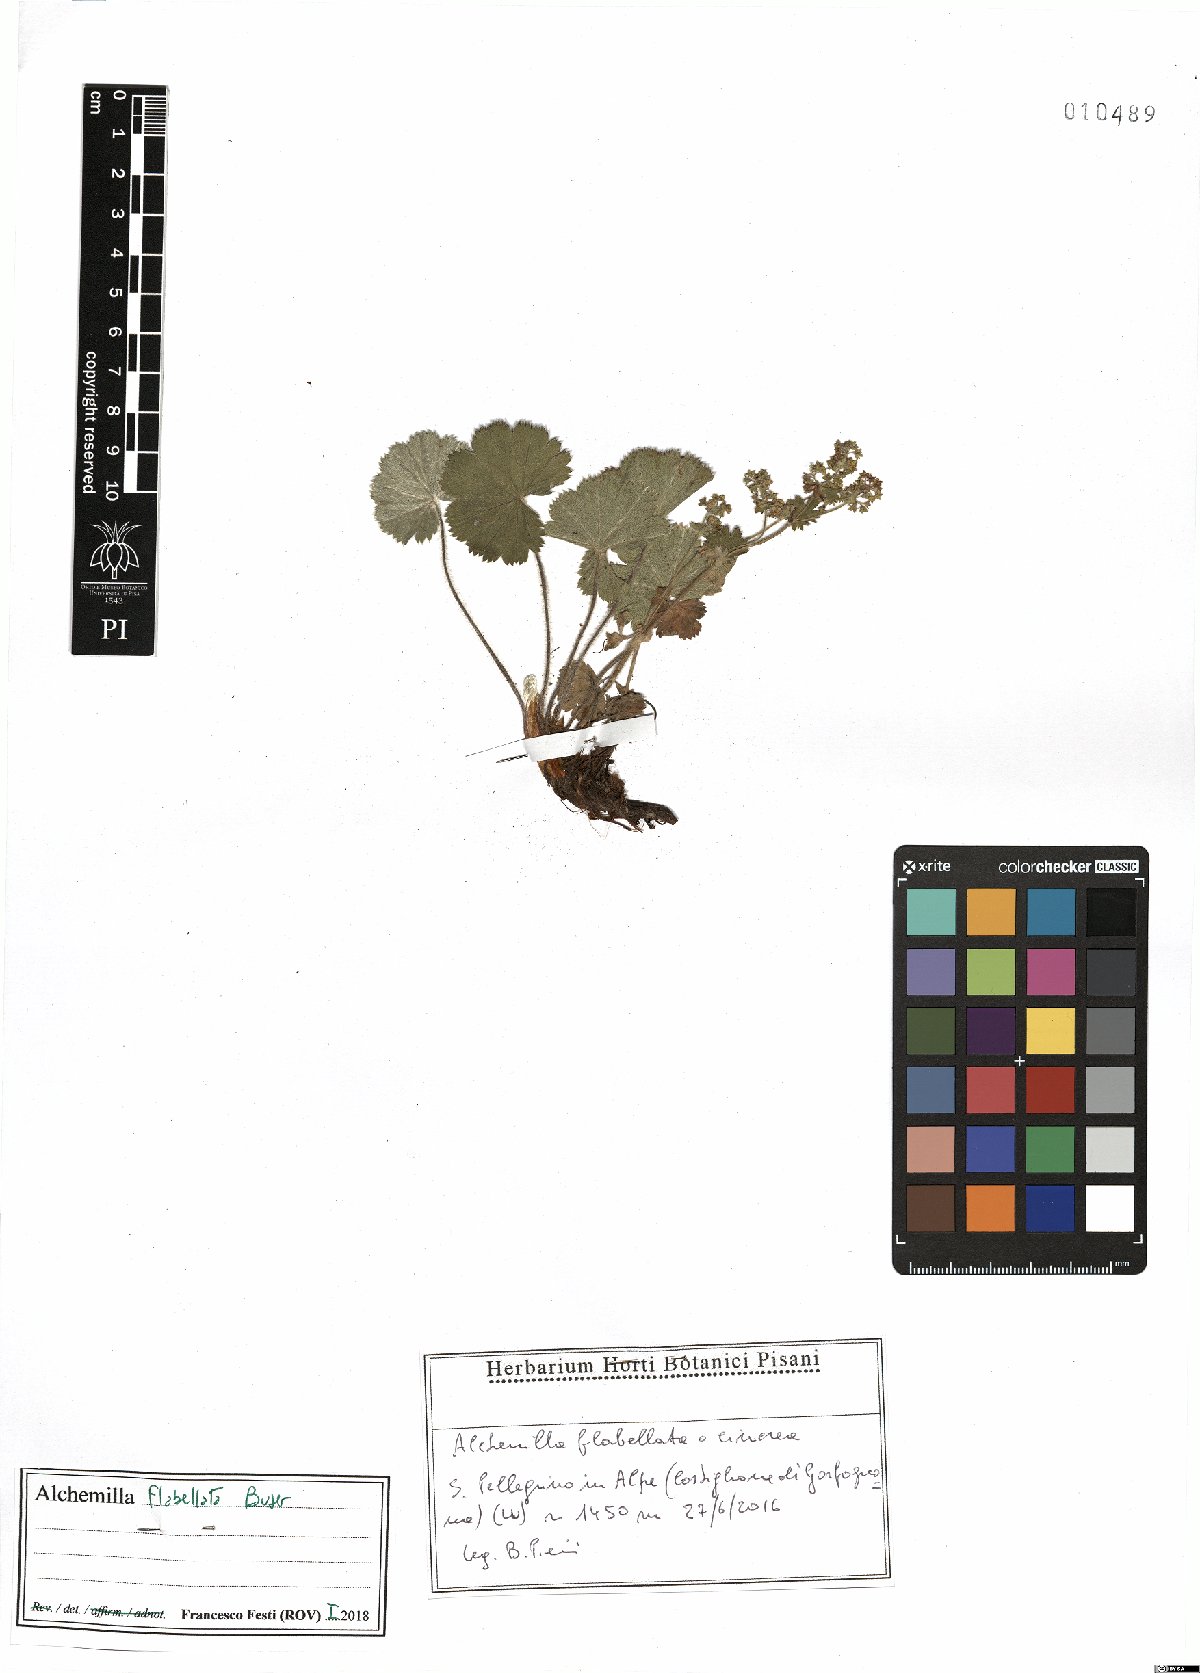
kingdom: Plantae
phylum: Tracheophyta
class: Magnoliopsida
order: Rosales
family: Rosaceae
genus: Alchemilla
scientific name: Alchemilla flabellata
